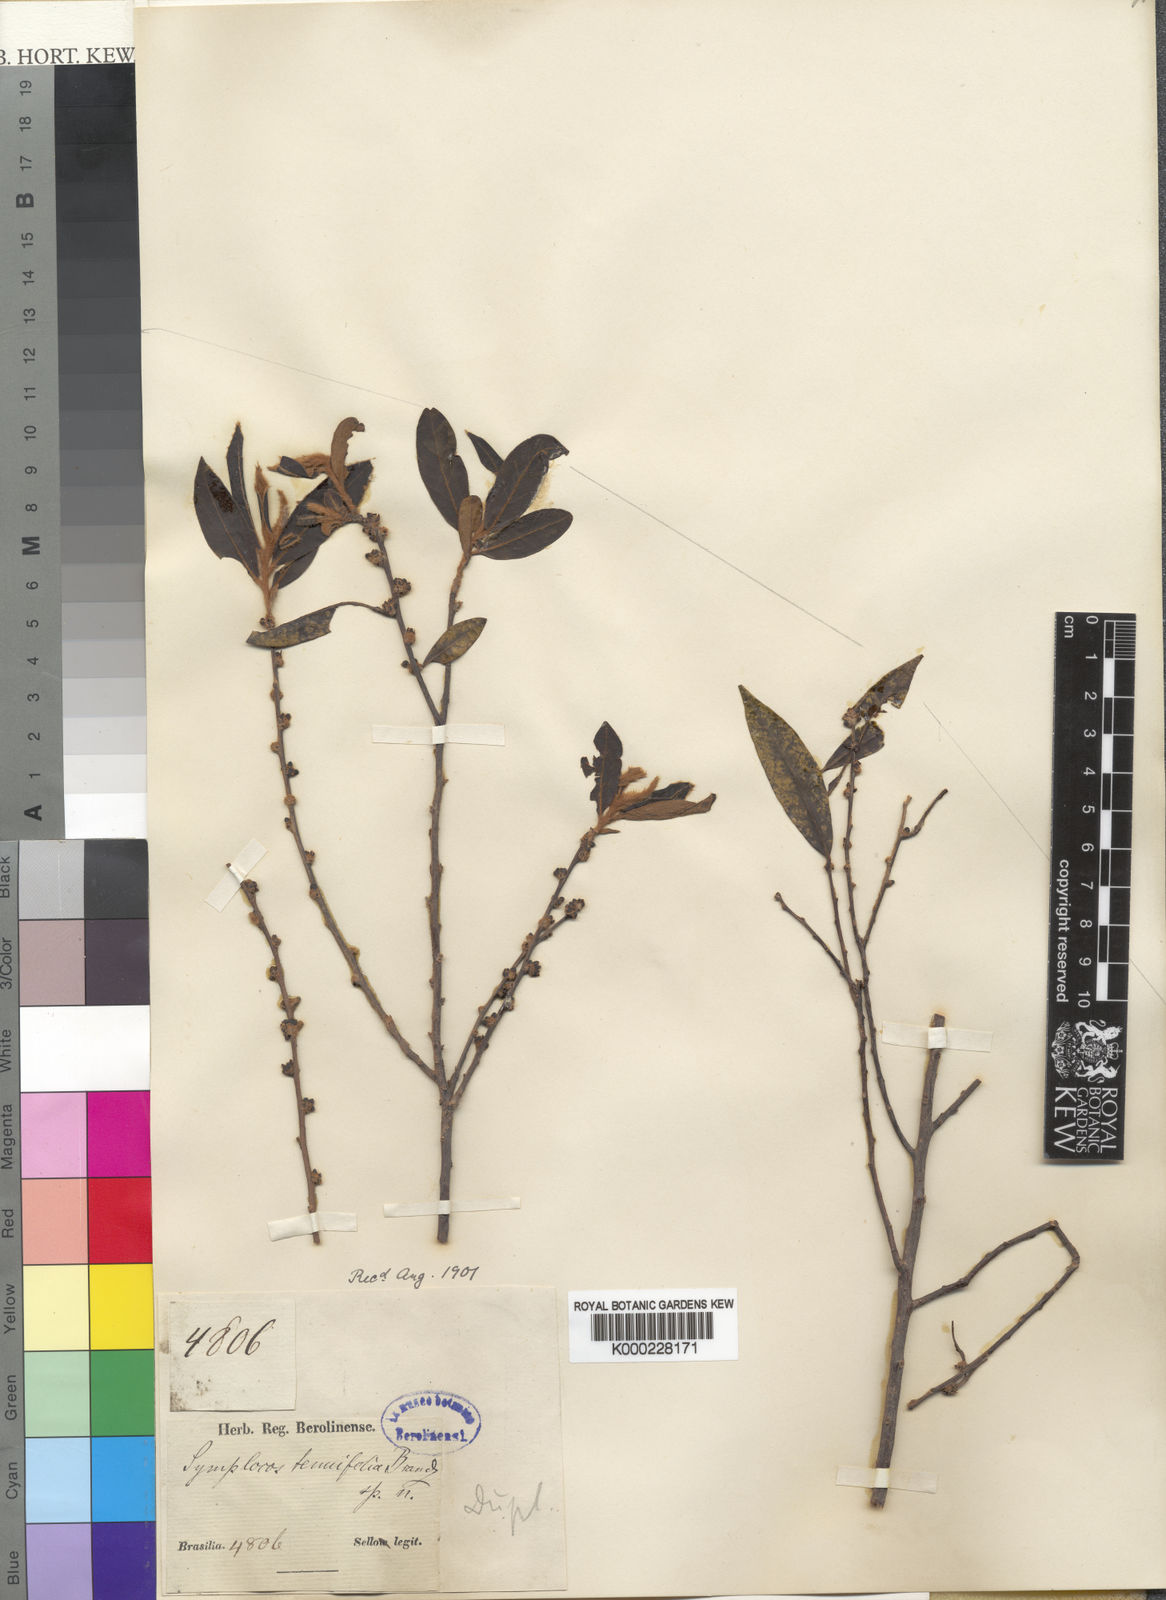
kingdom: Plantae
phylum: Tracheophyta
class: Magnoliopsida
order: Ericales
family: Symplocaceae
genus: Symplocos
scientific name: Symplocos tenuifolia
